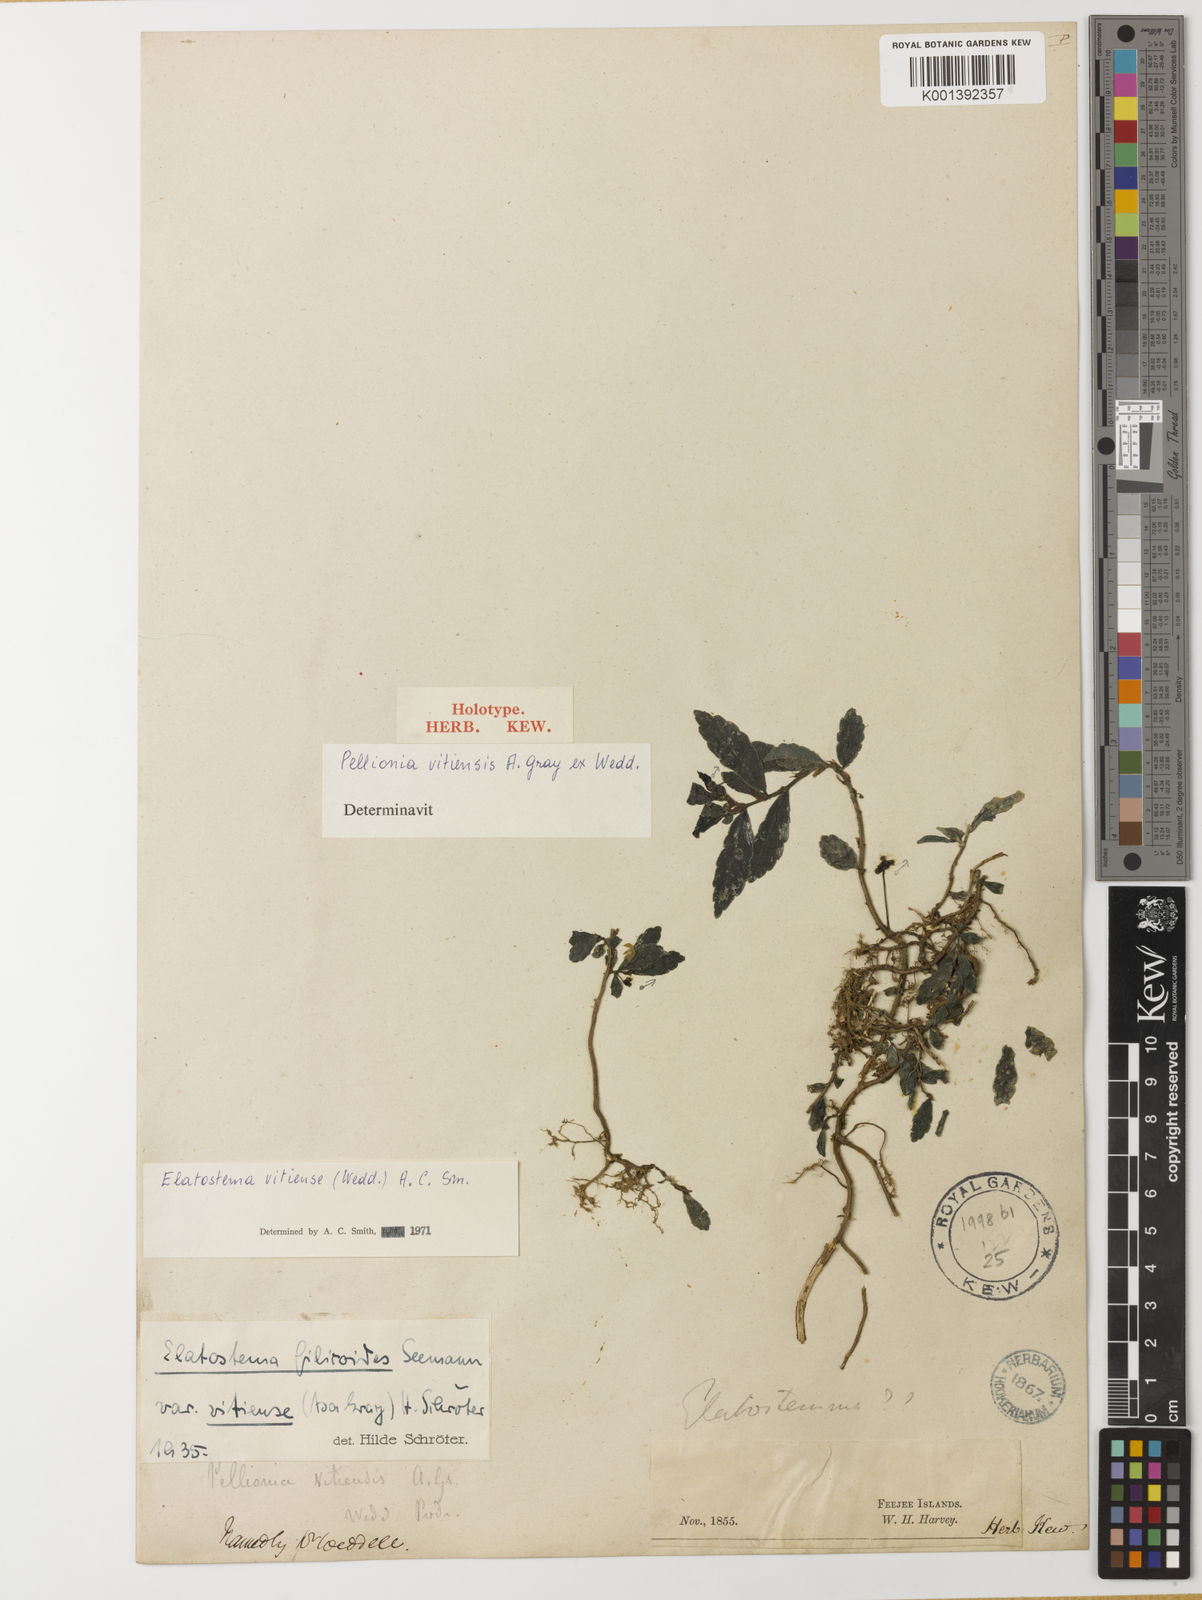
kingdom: Plantae
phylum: Tracheophyta
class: Magnoliopsida
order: Rosales
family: Urticaceae
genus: Elatostema
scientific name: Elatostema vitiense
